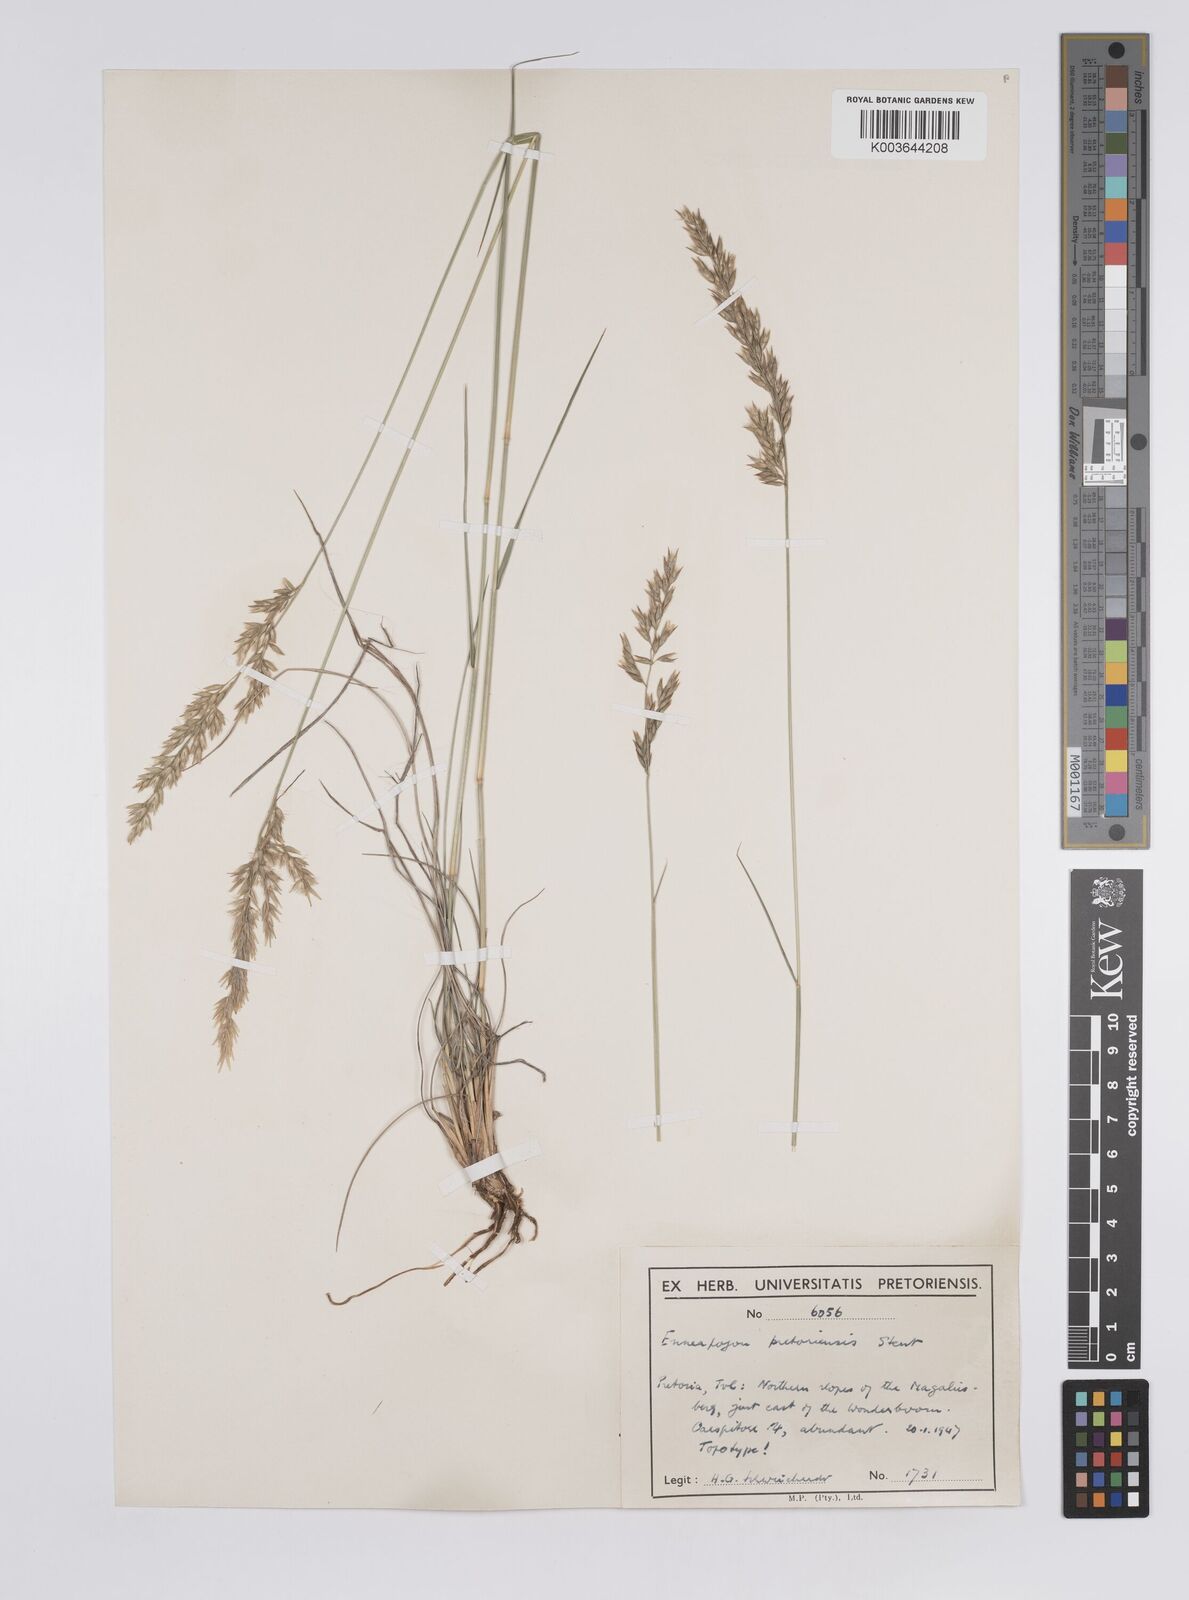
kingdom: Plantae
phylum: Tracheophyta
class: Liliopsida
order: Poales
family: Poaceae
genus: Enneapogon
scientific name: Enneapogon pretoriensis
